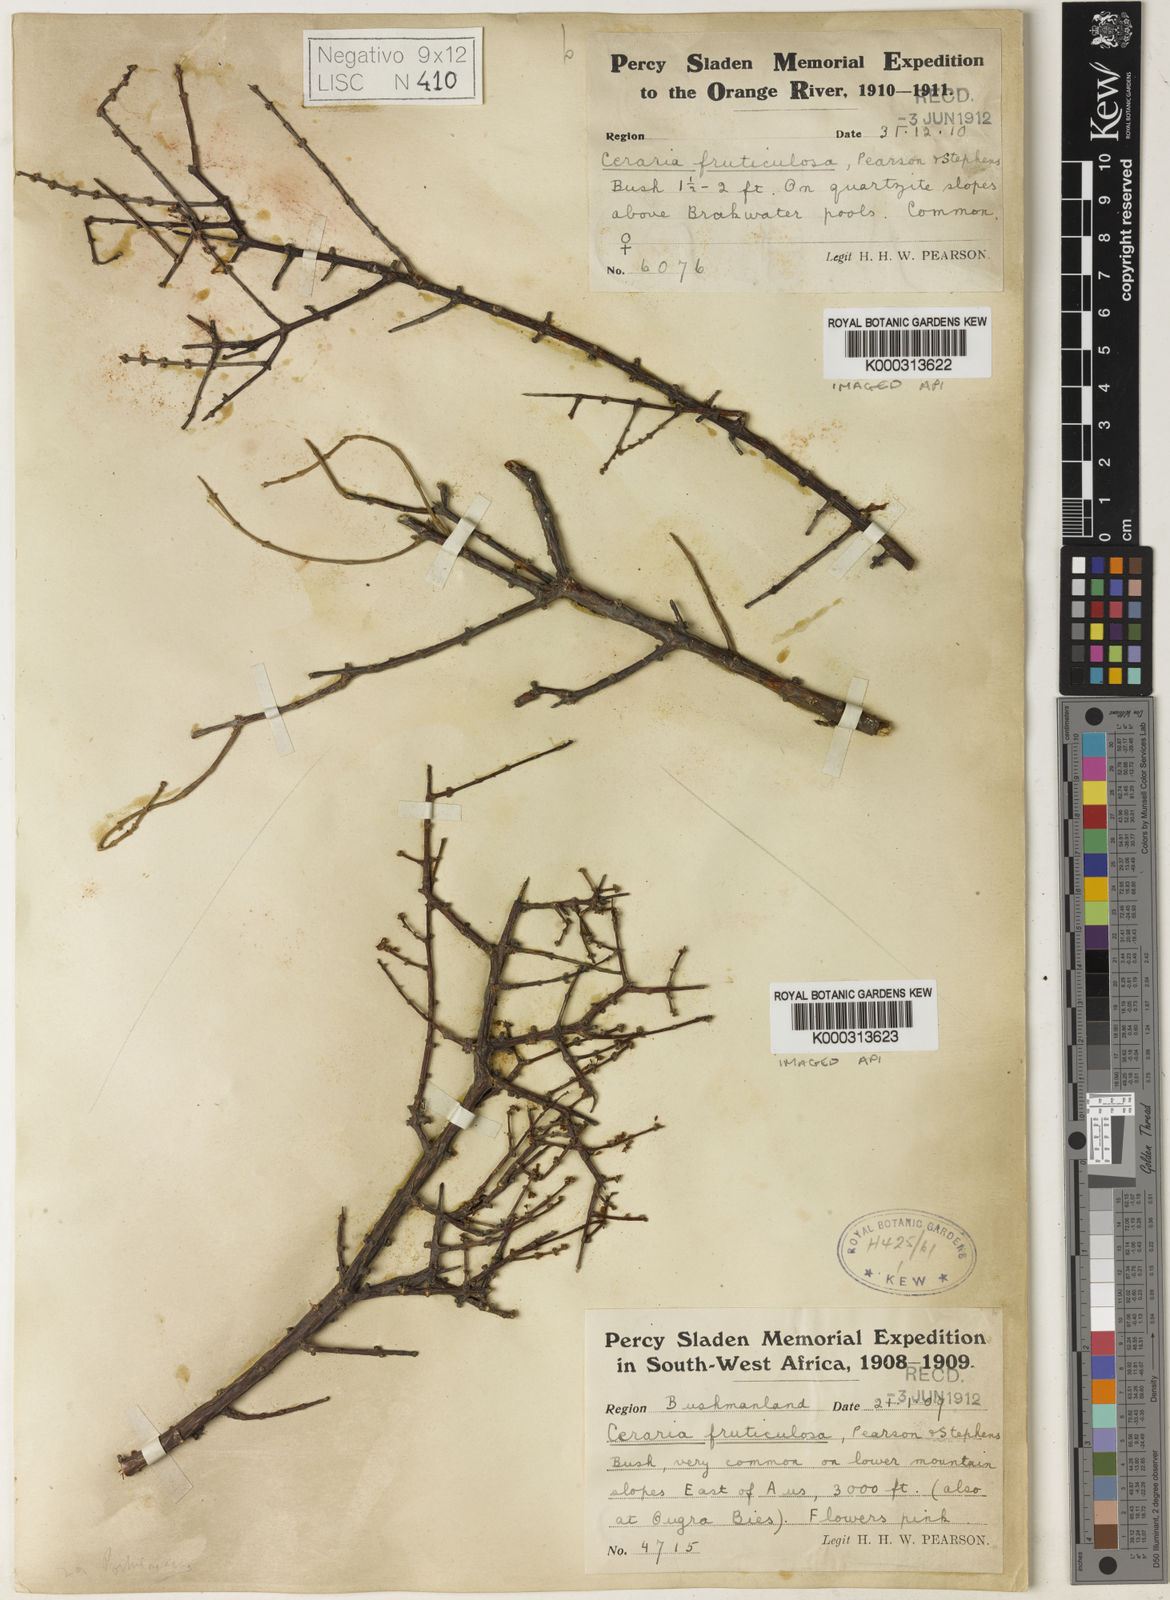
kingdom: Plantae
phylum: Tracheophyta
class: Magnoliopsida
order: Caryophyllales
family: Didiereaceae
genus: Portulacaria
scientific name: Portulacaria fruticulosa
